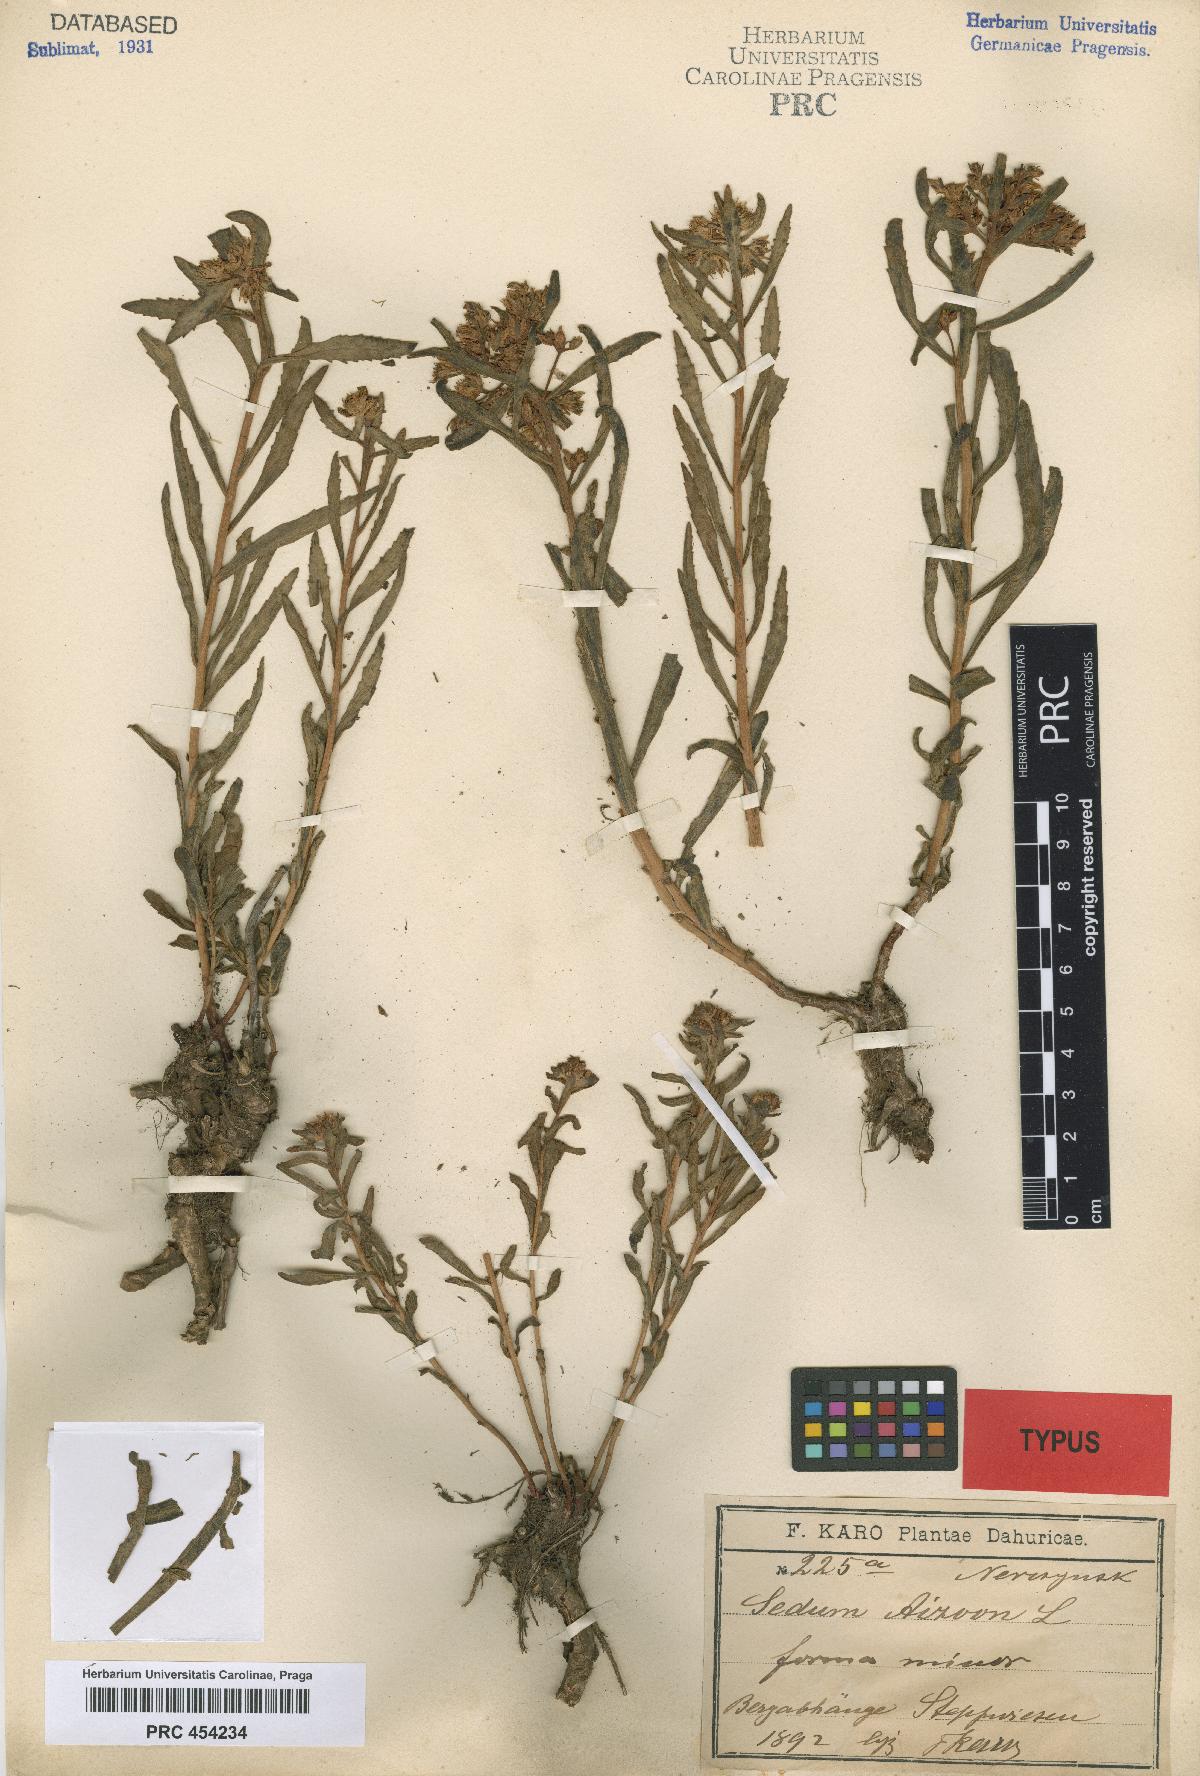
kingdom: Plantae
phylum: Tracheophyta
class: Magnoliopsida
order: Saxifragales
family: Crassulaceae
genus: Sedum
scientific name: Sedum aizoon
